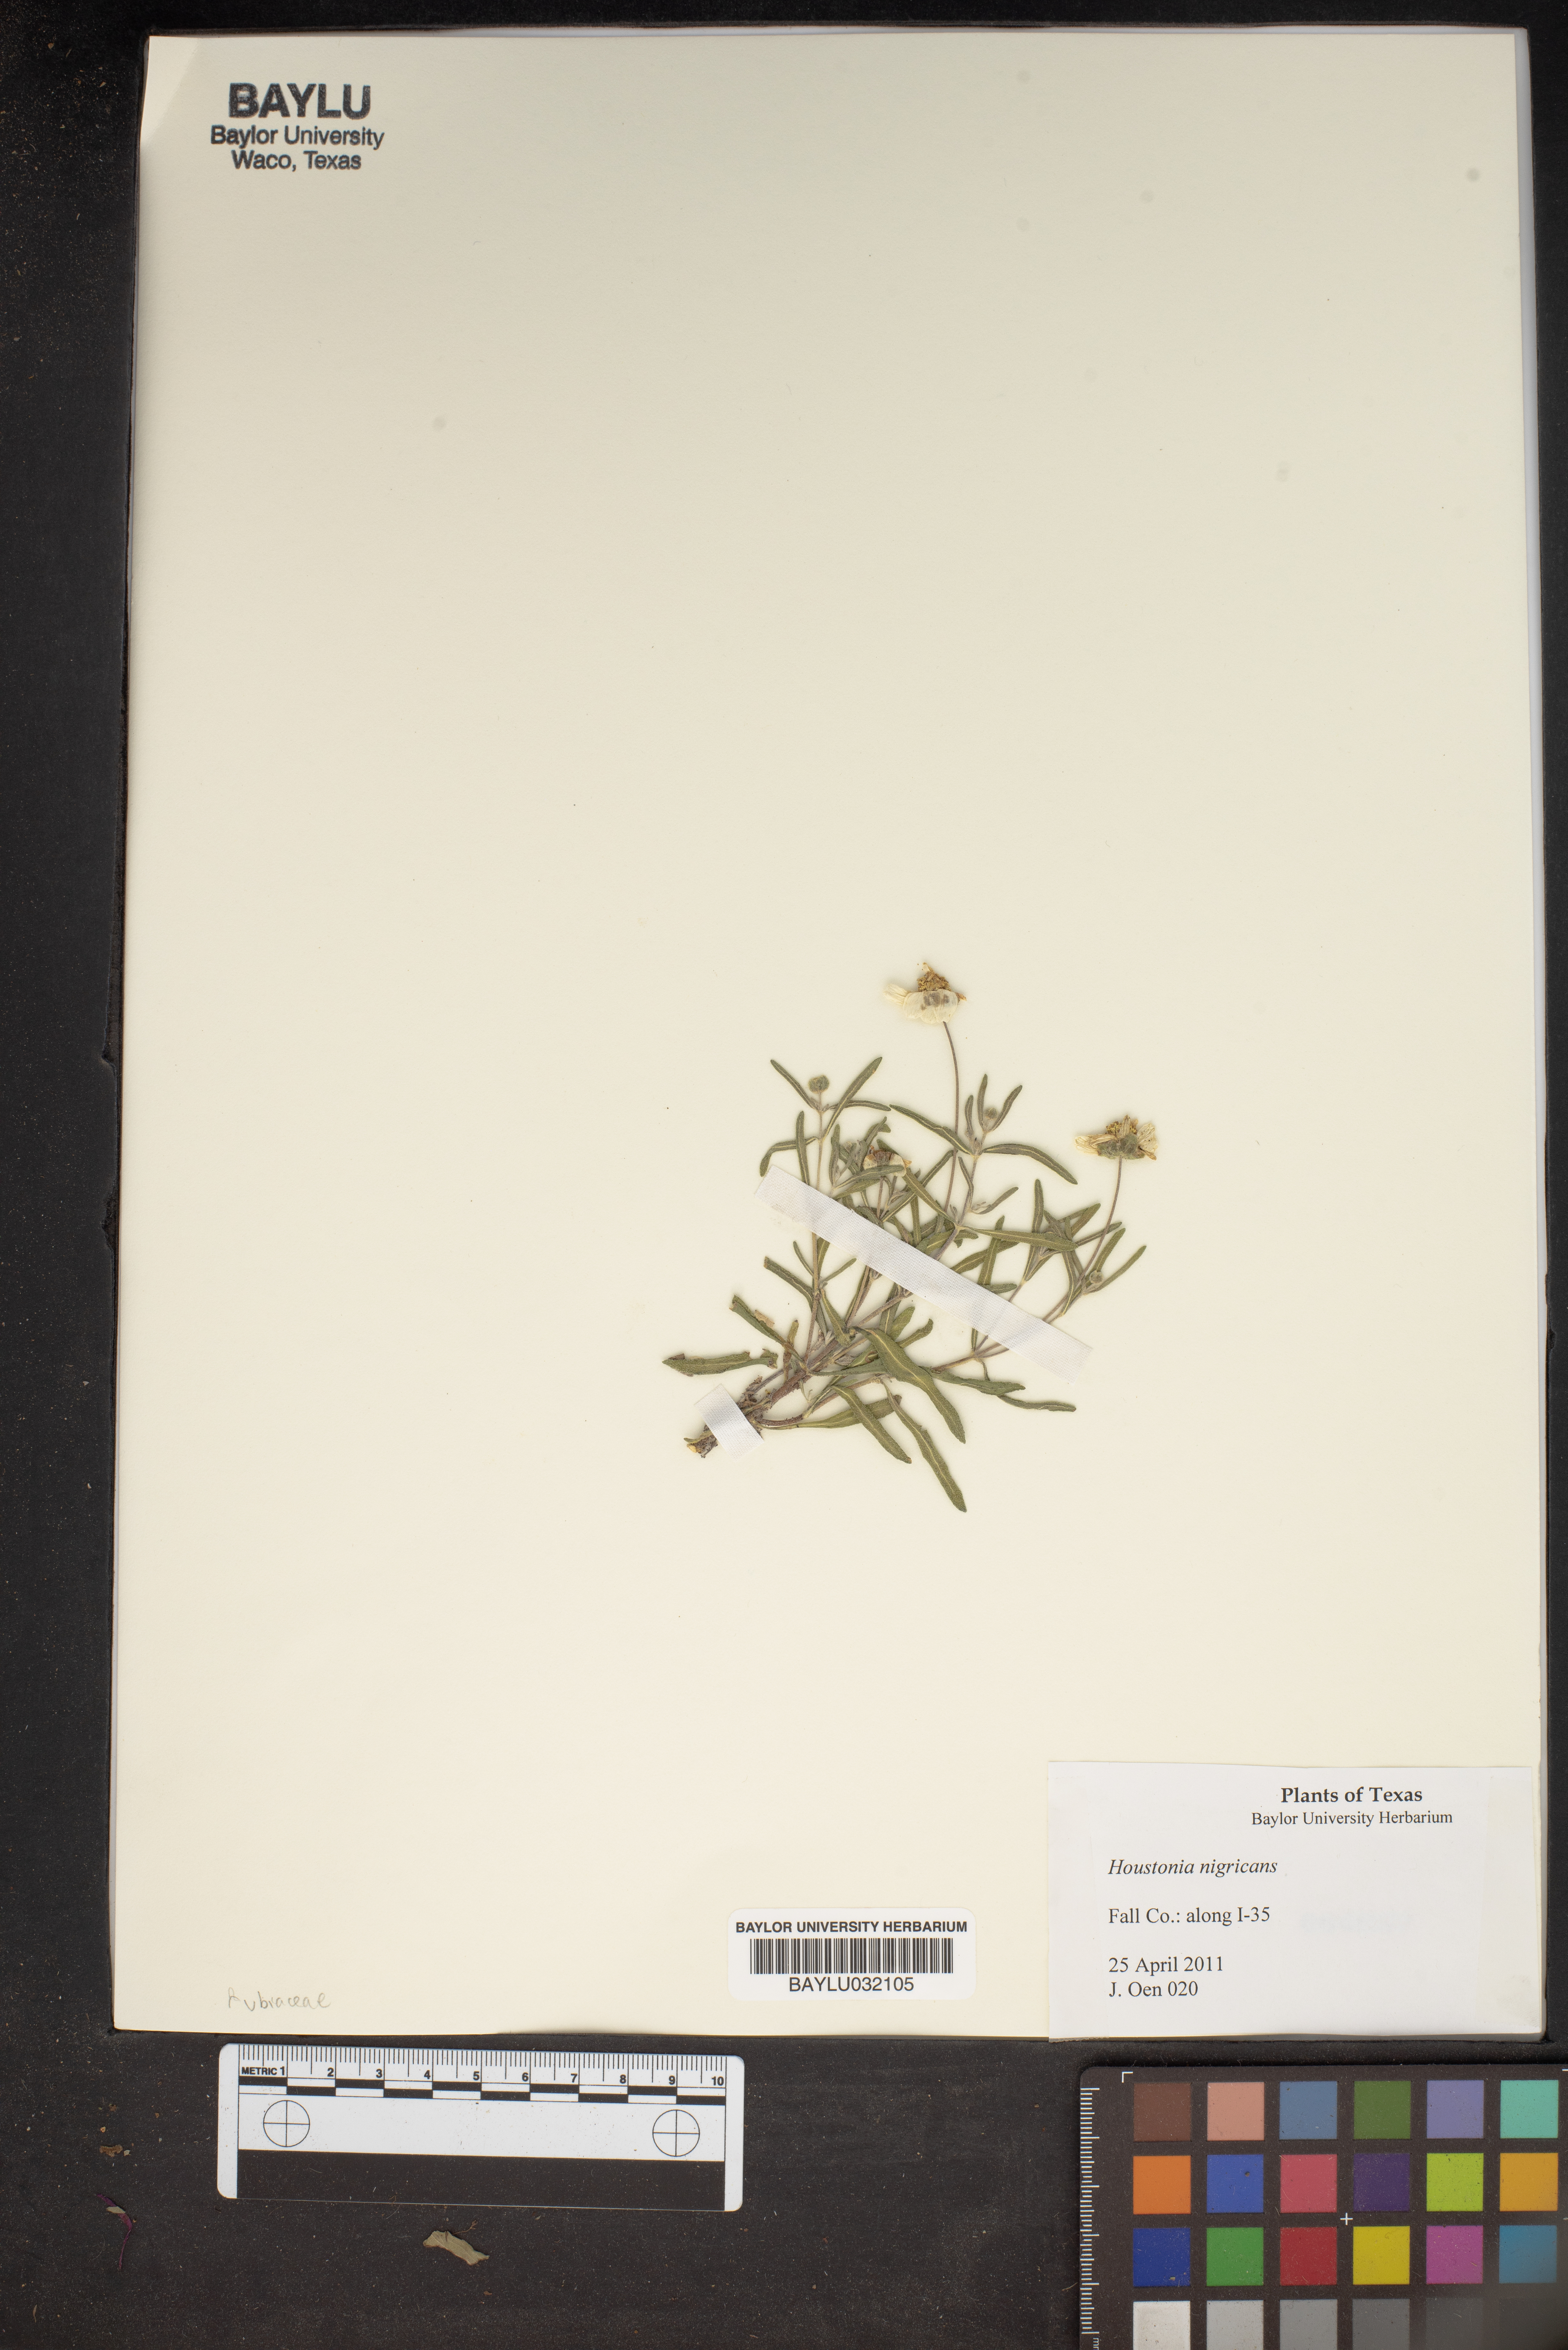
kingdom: Plantae
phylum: Tracheophyta
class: Magnoliopsida
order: Gentianales
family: Rubiaceae
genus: Stenaria
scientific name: Stenaria nigricans
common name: Diamondflowers
